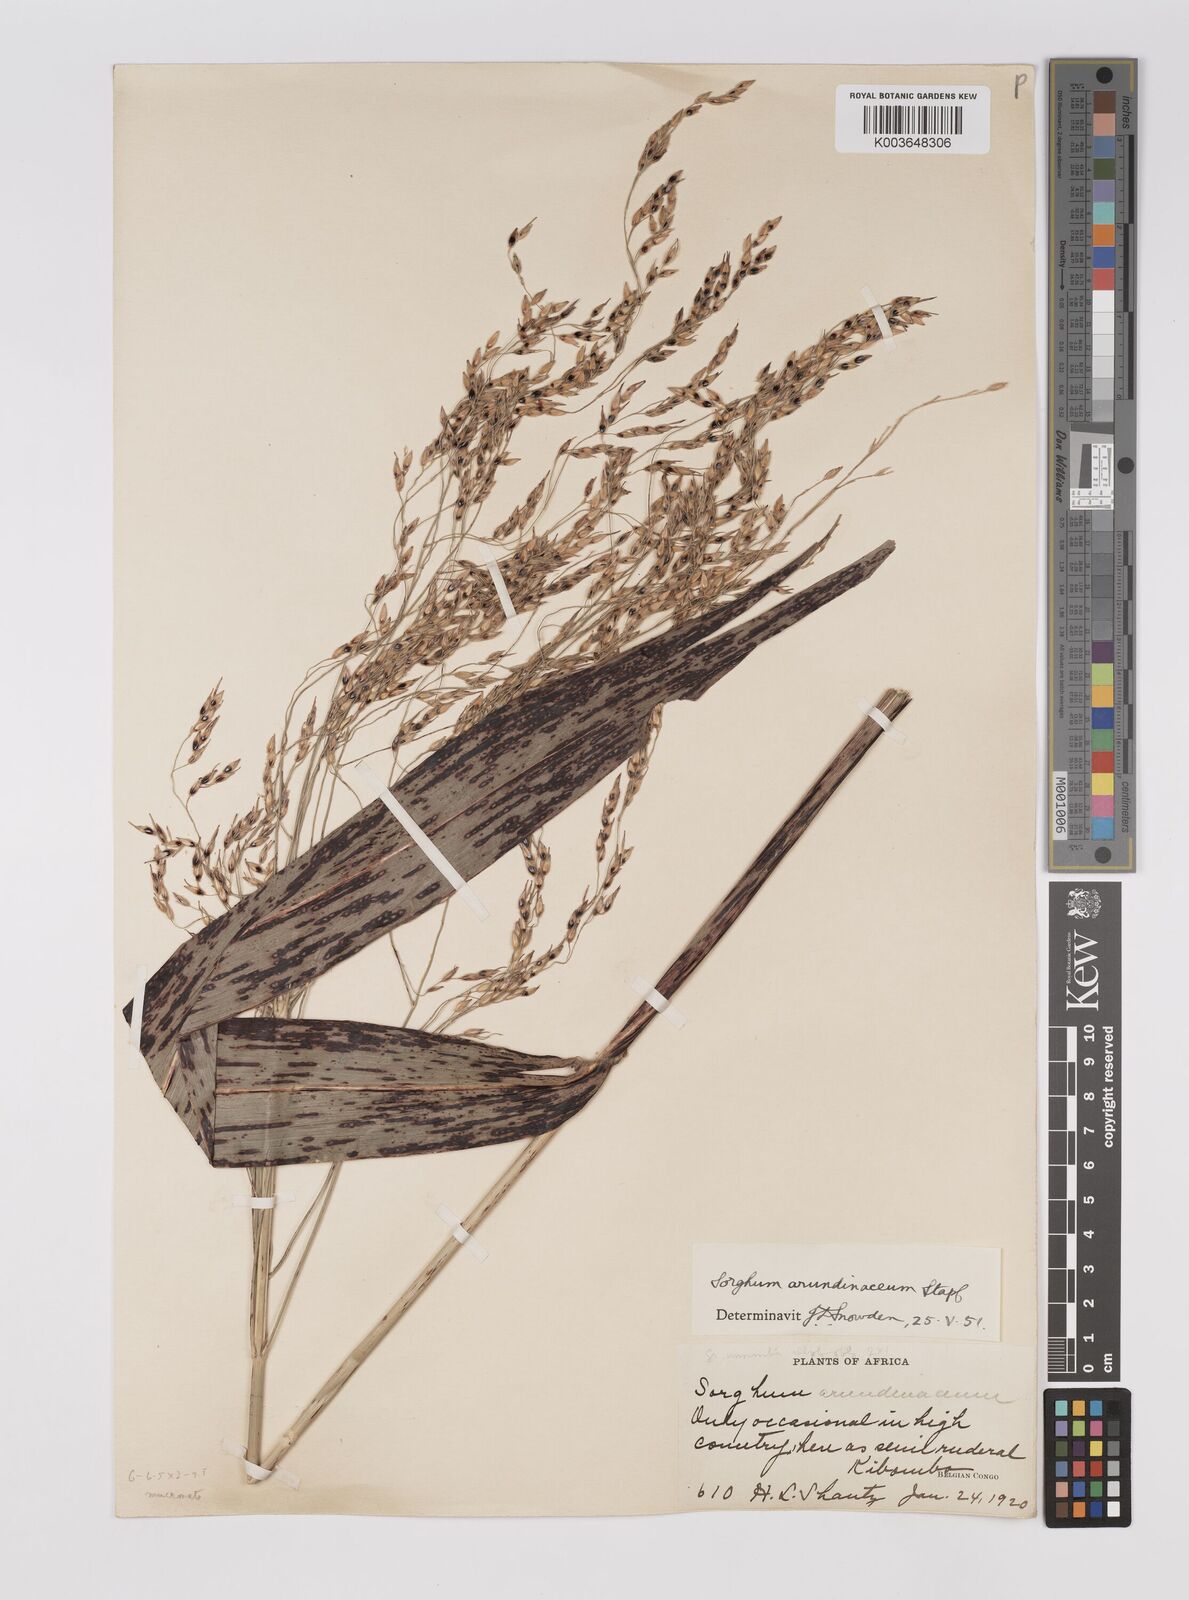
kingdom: Plantae
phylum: Tracheophyta
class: Liliopsida
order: Poales
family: Poaceae
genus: Sorghum
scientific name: Sorghum arundinaceum
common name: Sorghum
